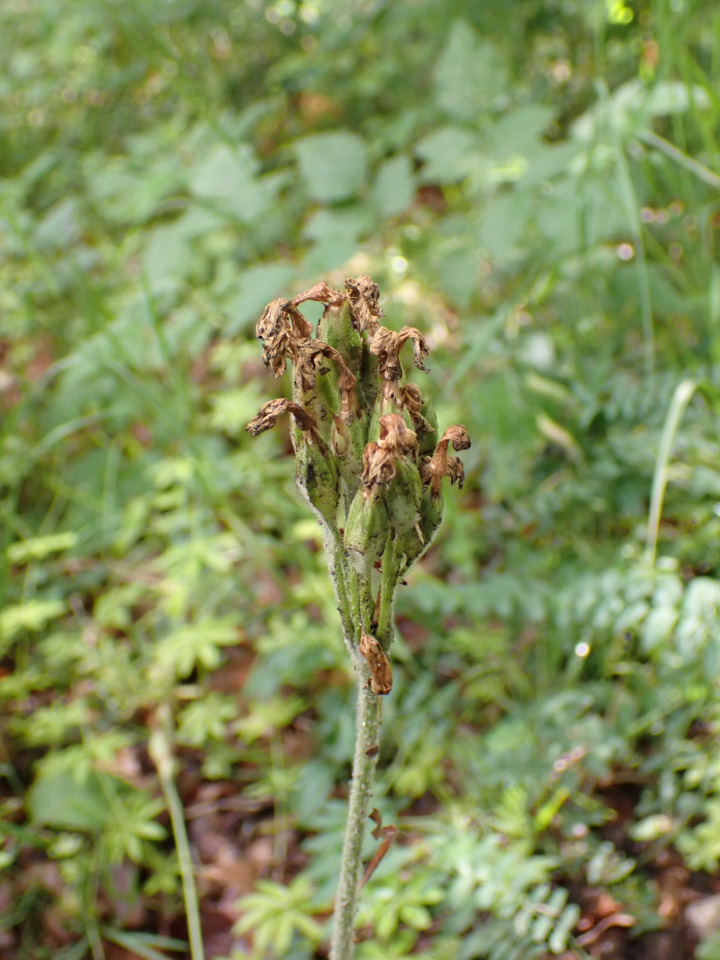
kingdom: Plantae
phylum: Tracheophyta
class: Magnoliopsida
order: Ericales
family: Primulaceae
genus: Primula
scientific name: Primula elatior
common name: Fladkravet kodriver
